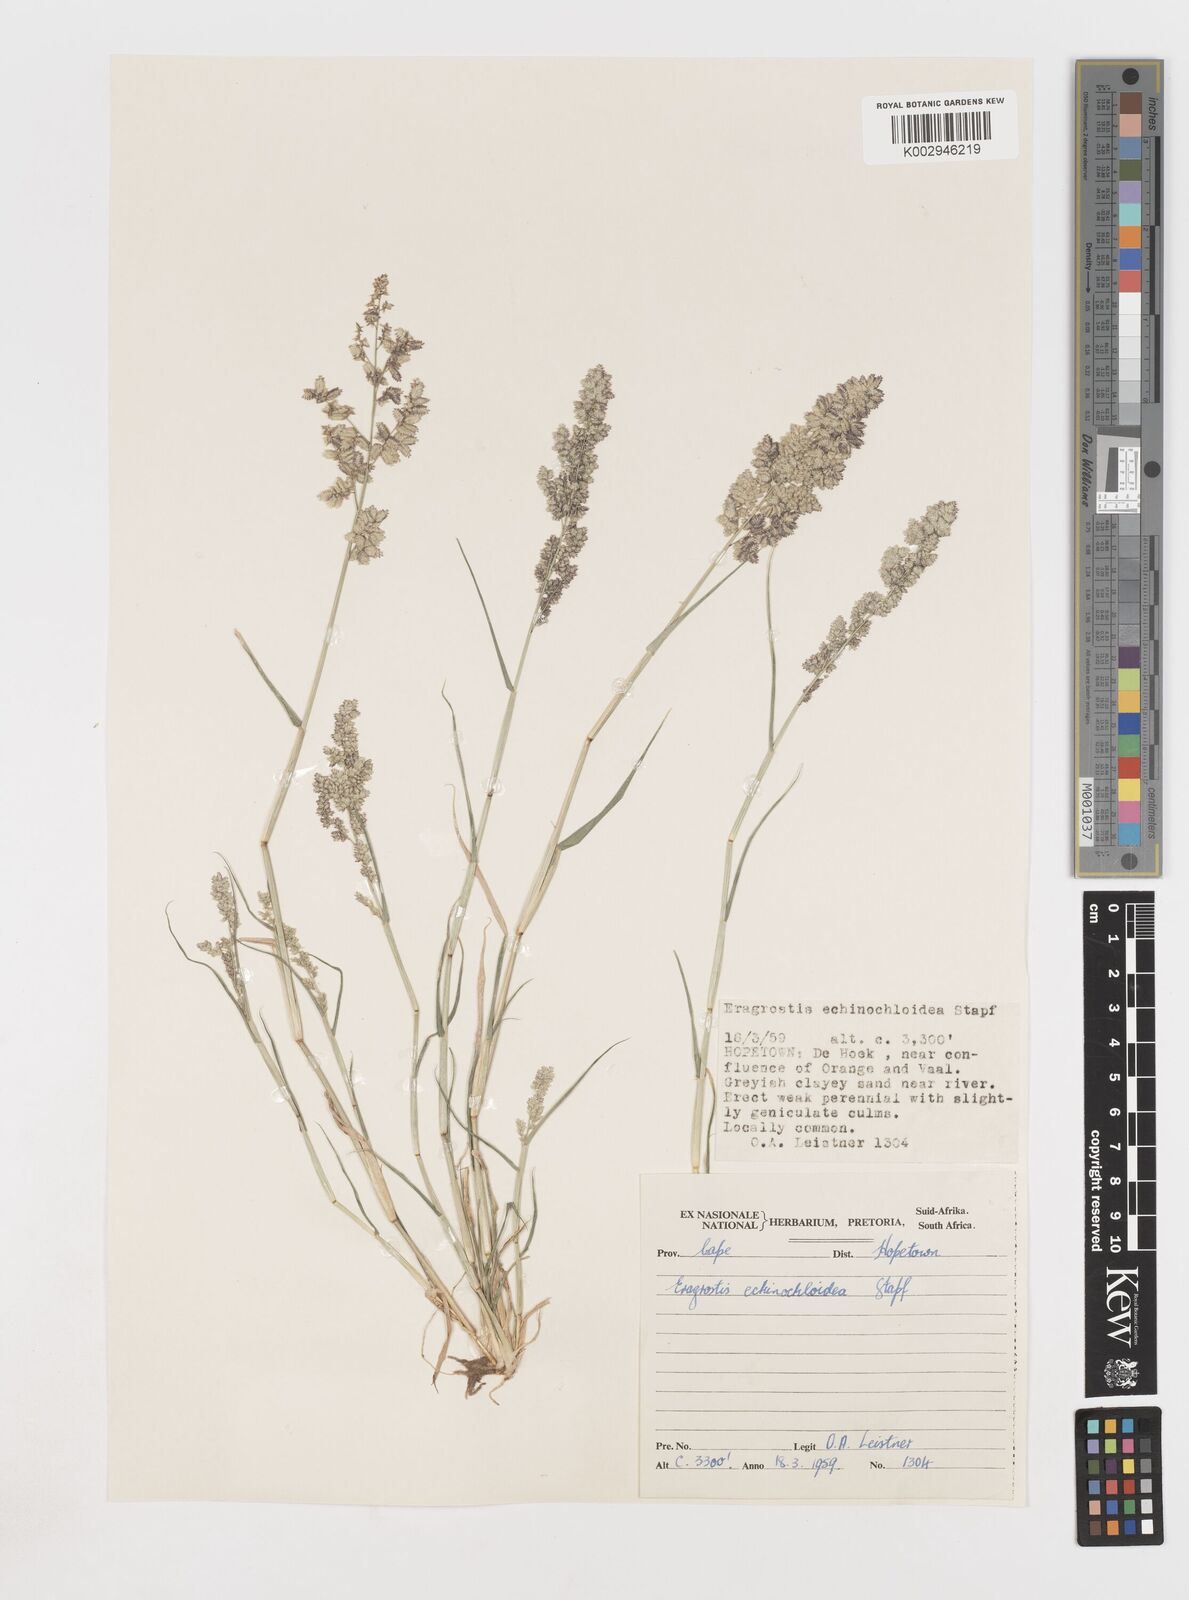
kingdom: Plantae
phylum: Tracheophyta
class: Liliopsida
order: Poales
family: Poaceae
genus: Eragrostis
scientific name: Eragrostis echinochloidea
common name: African lovegrass
